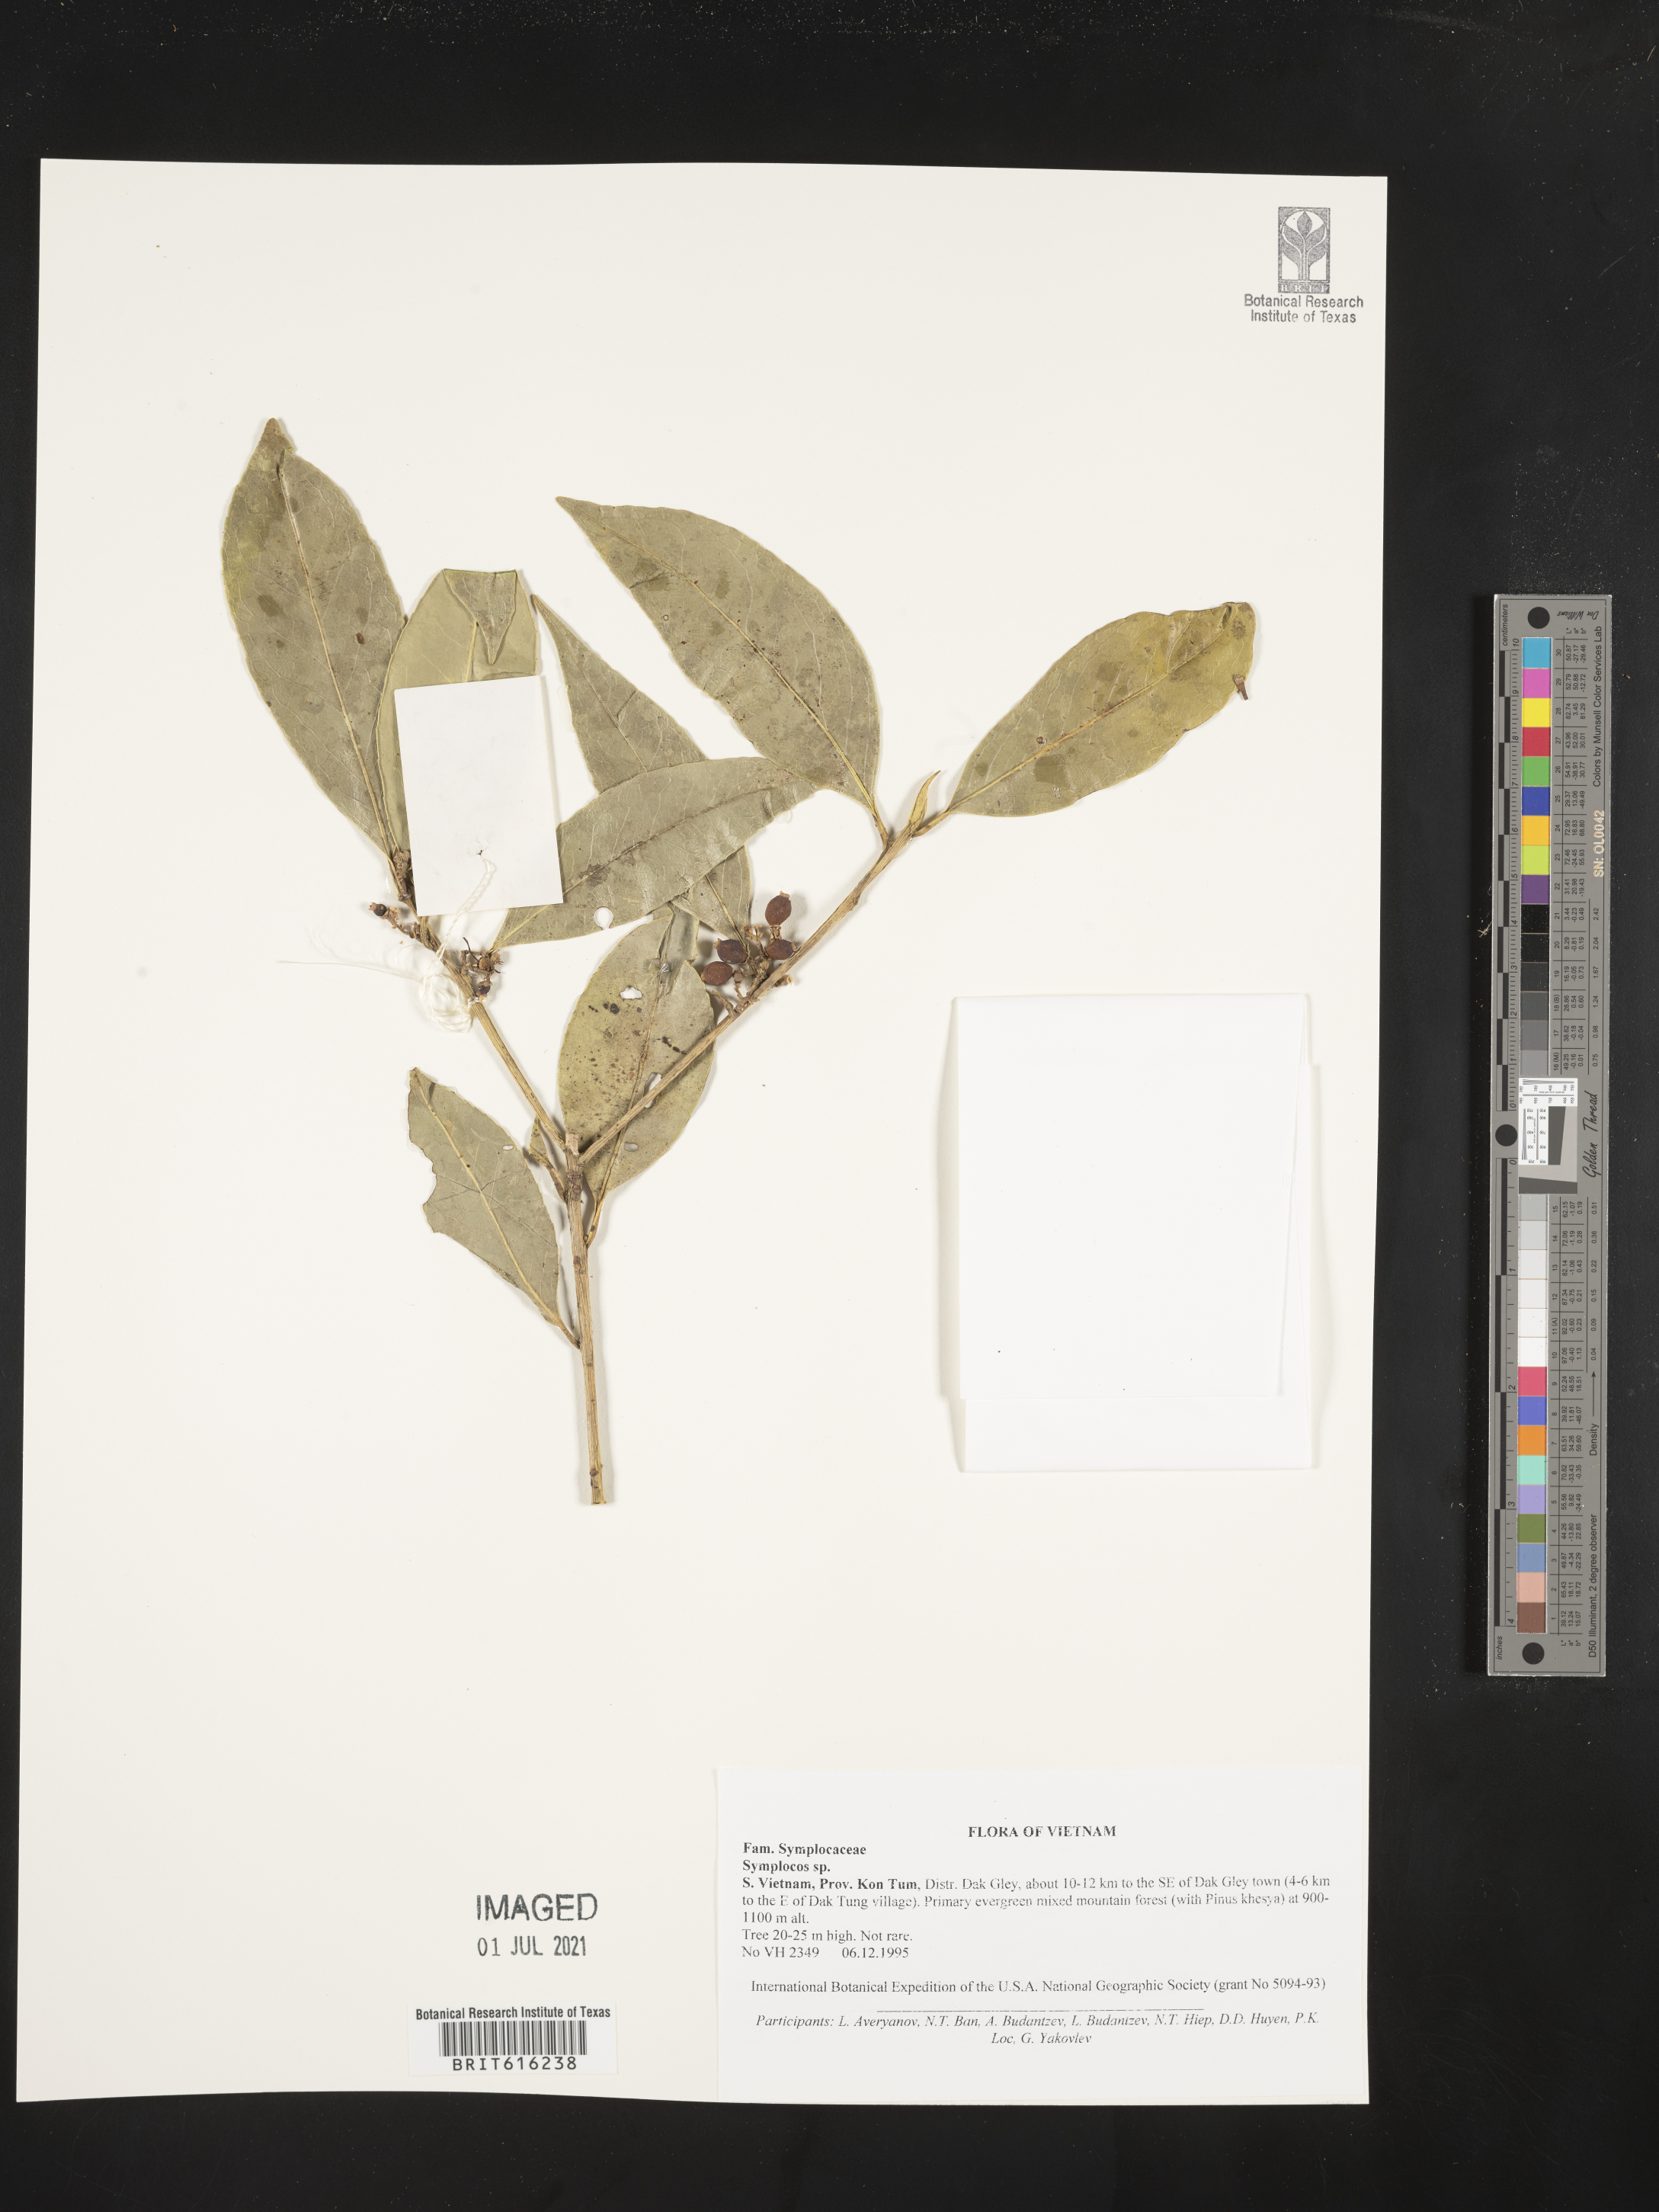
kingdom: Plantae
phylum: Tracheophyta
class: Magnoliopsida
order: Ericales
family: Symplocaceae
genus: Symplocos
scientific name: Symplocos
